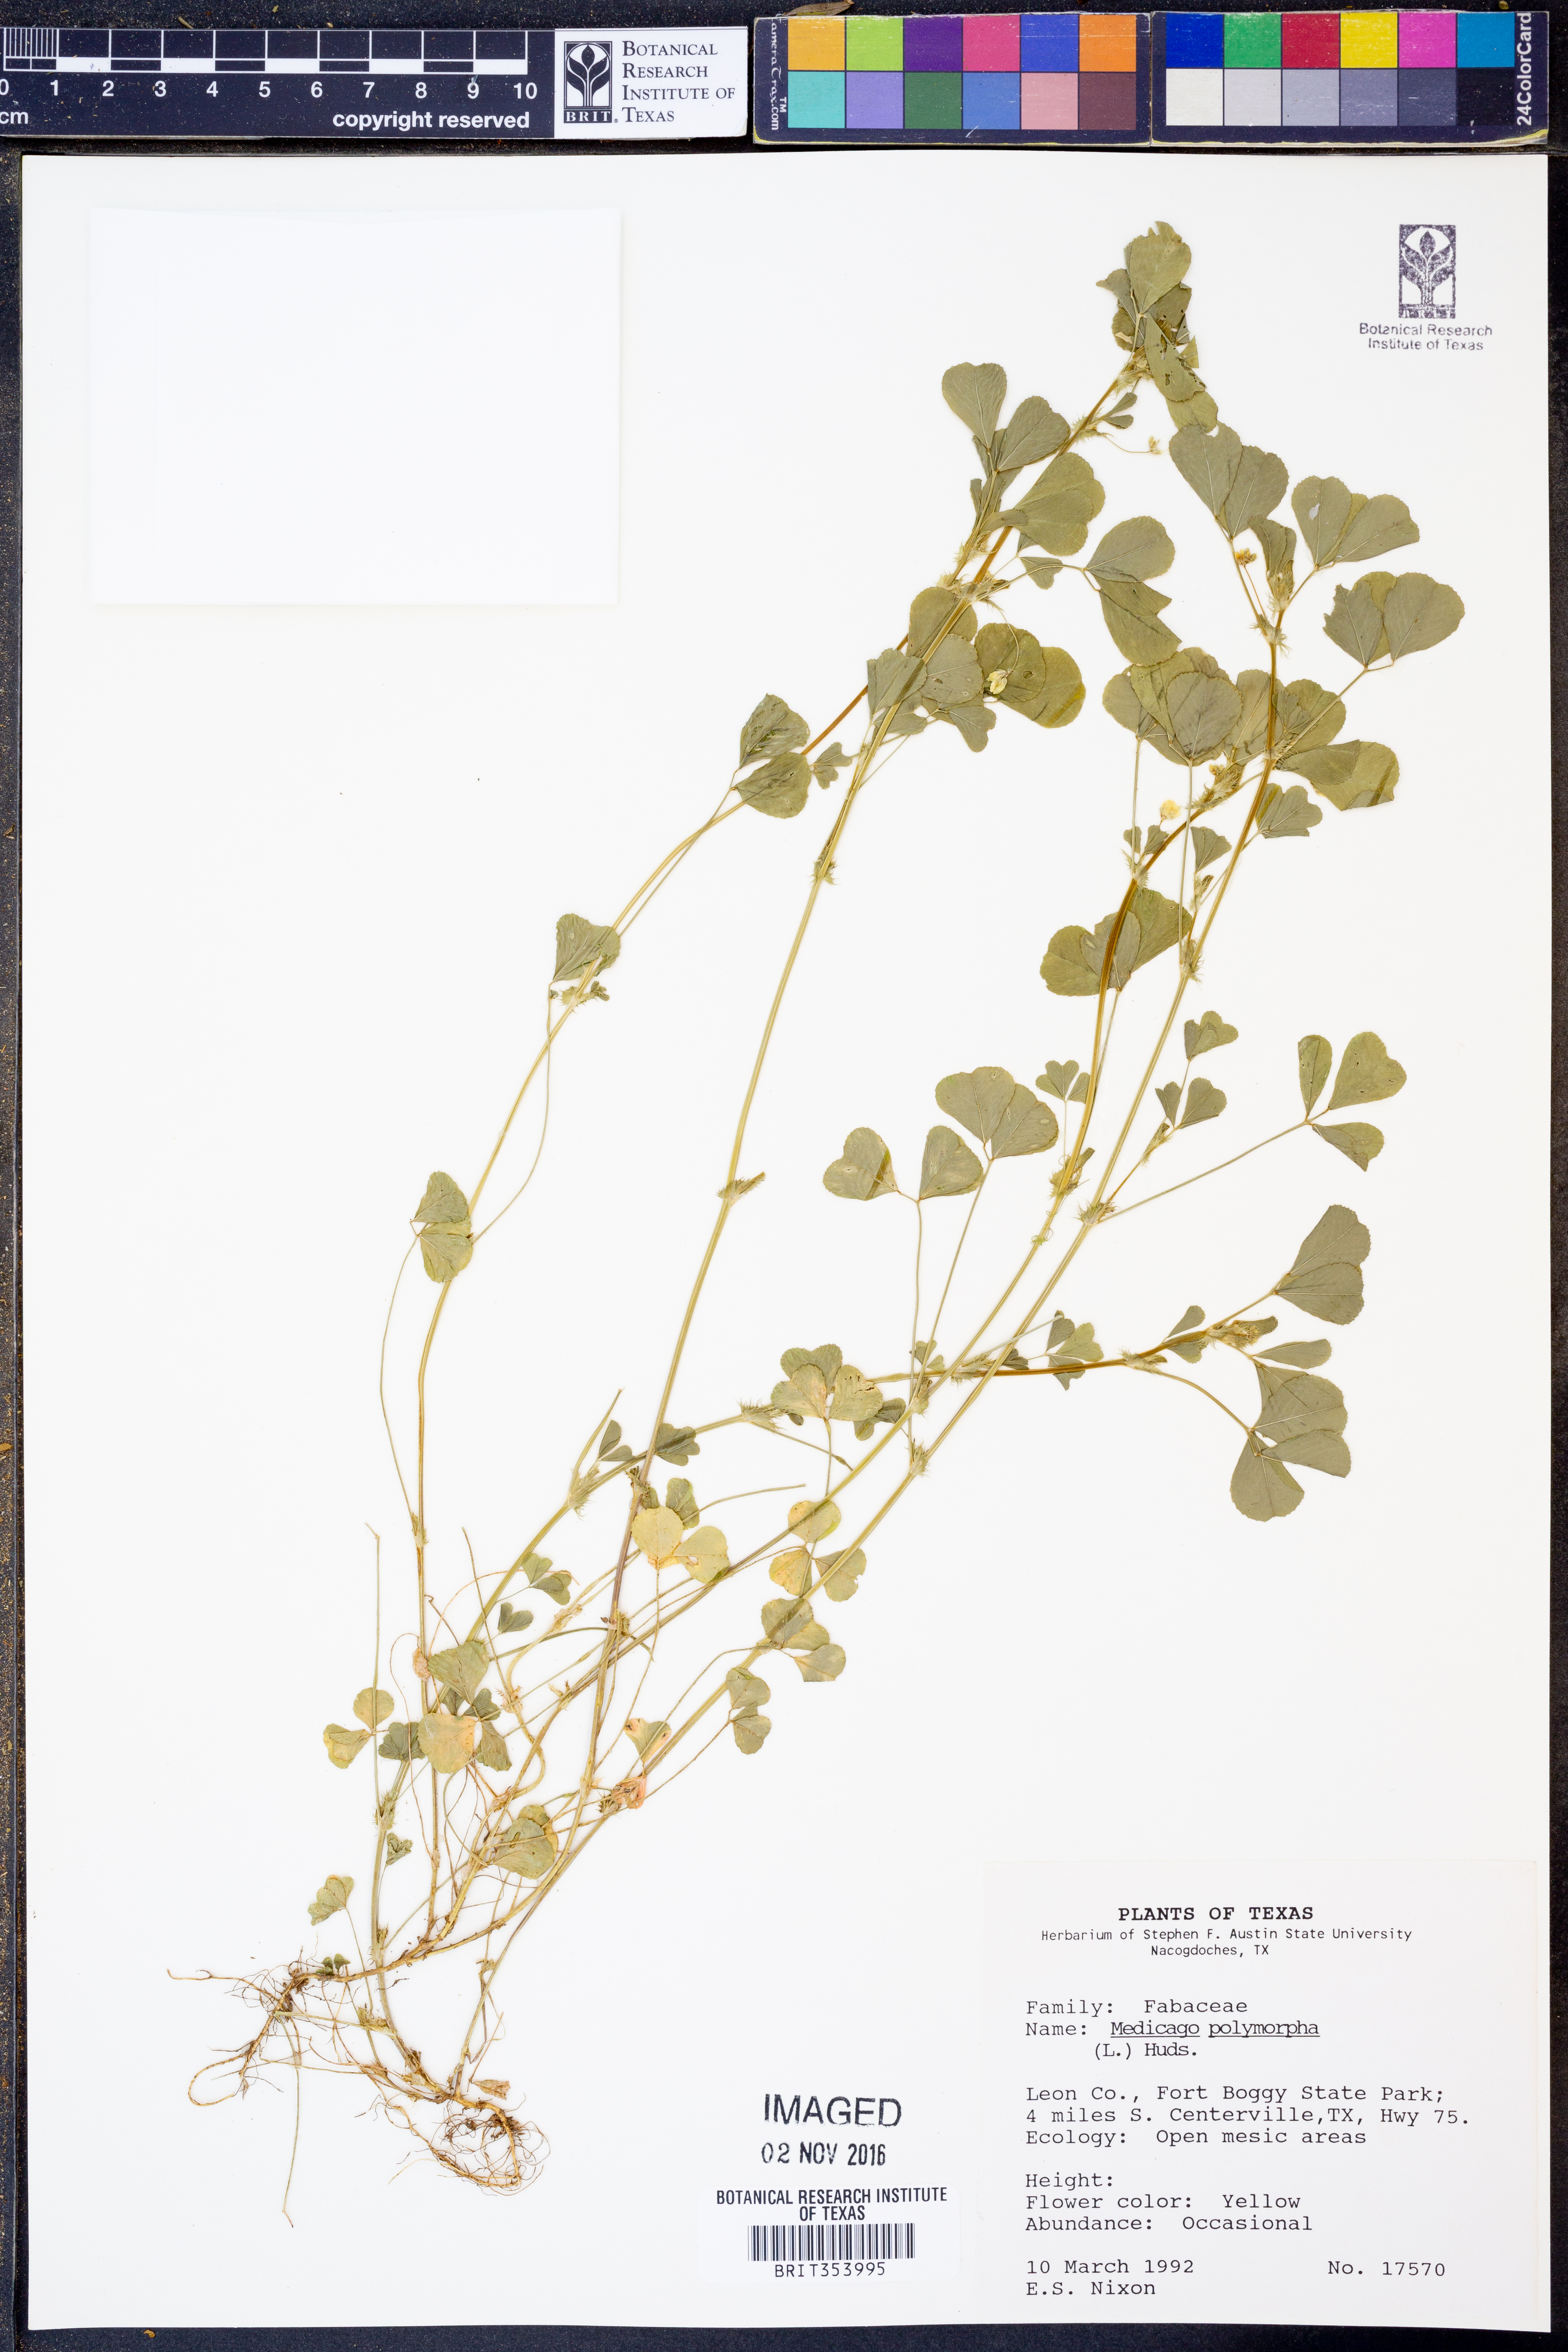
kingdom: Plantae
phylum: Tracheophyta
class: Magnoliopsida
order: Fabales
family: Fabaceae
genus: Medicago
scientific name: Medicago polymorpha
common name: Burclover
